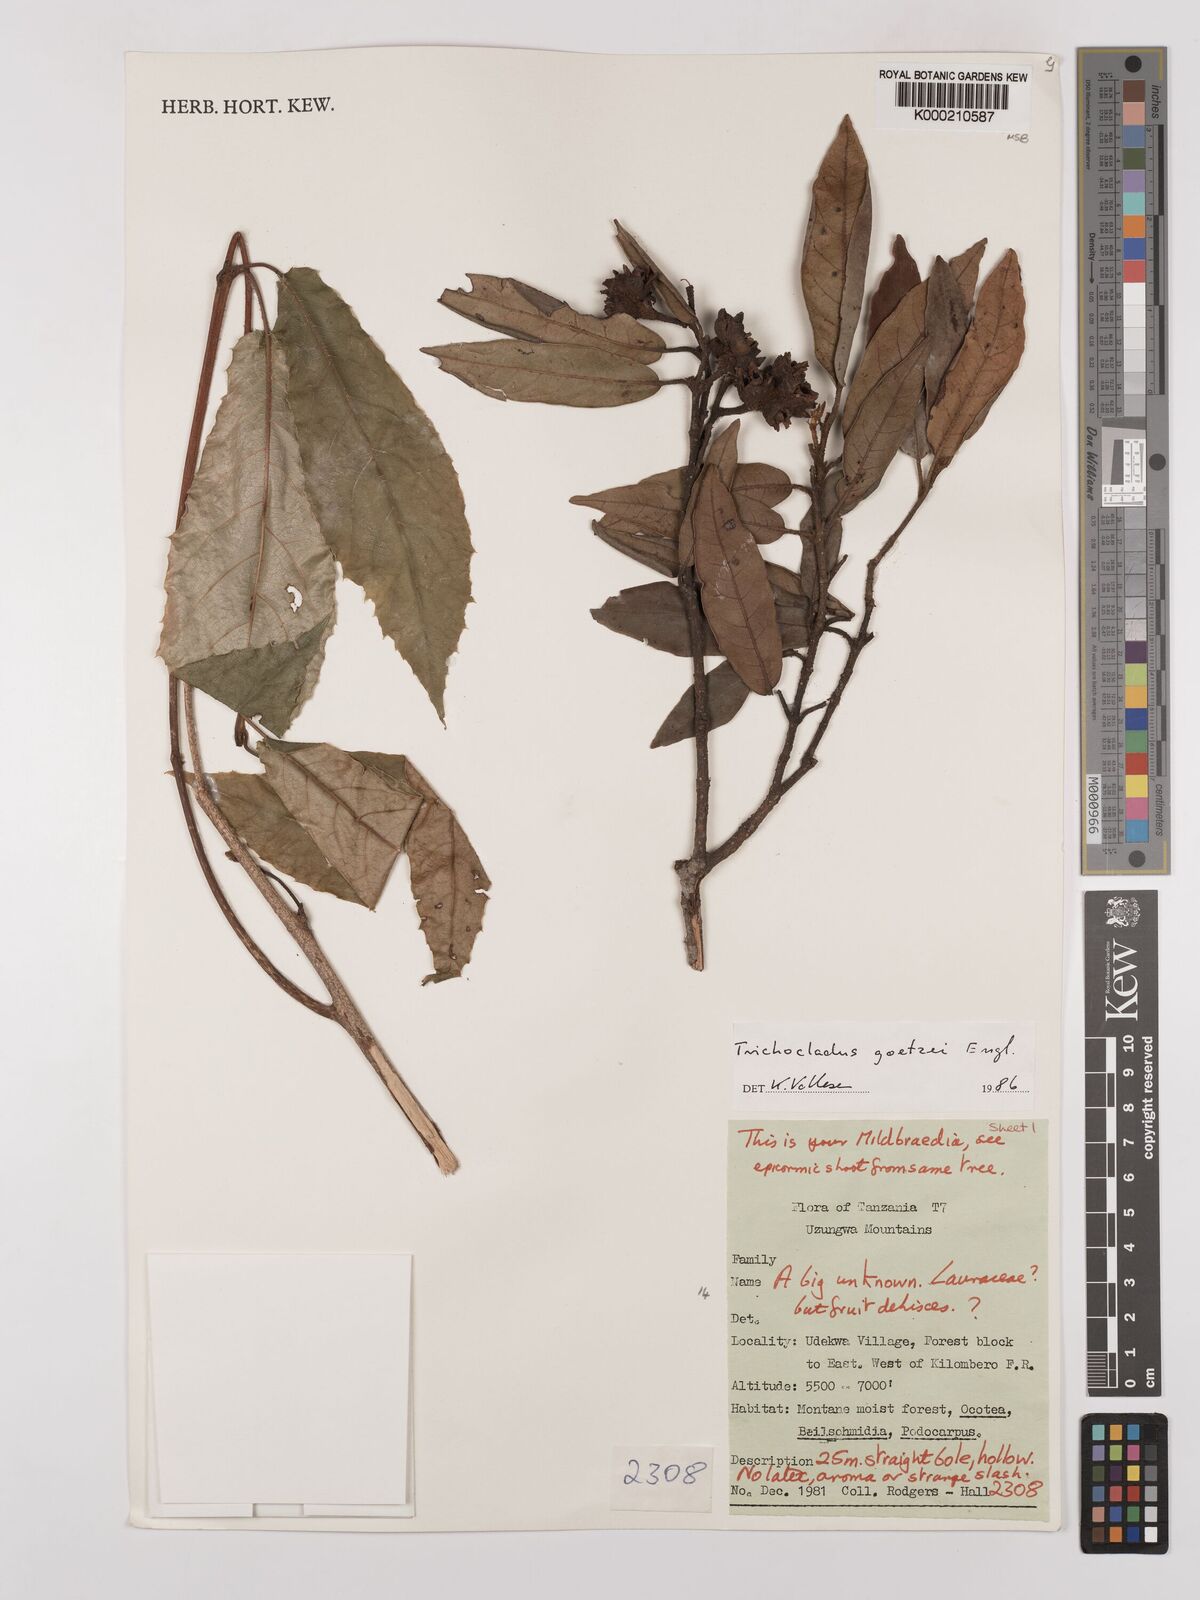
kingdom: Plantae
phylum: Tracheophyta
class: Magnoliopsida
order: Saxifragales
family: Hamamelidaceae
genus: Trichocladus
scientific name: Trichocladus goetzei
